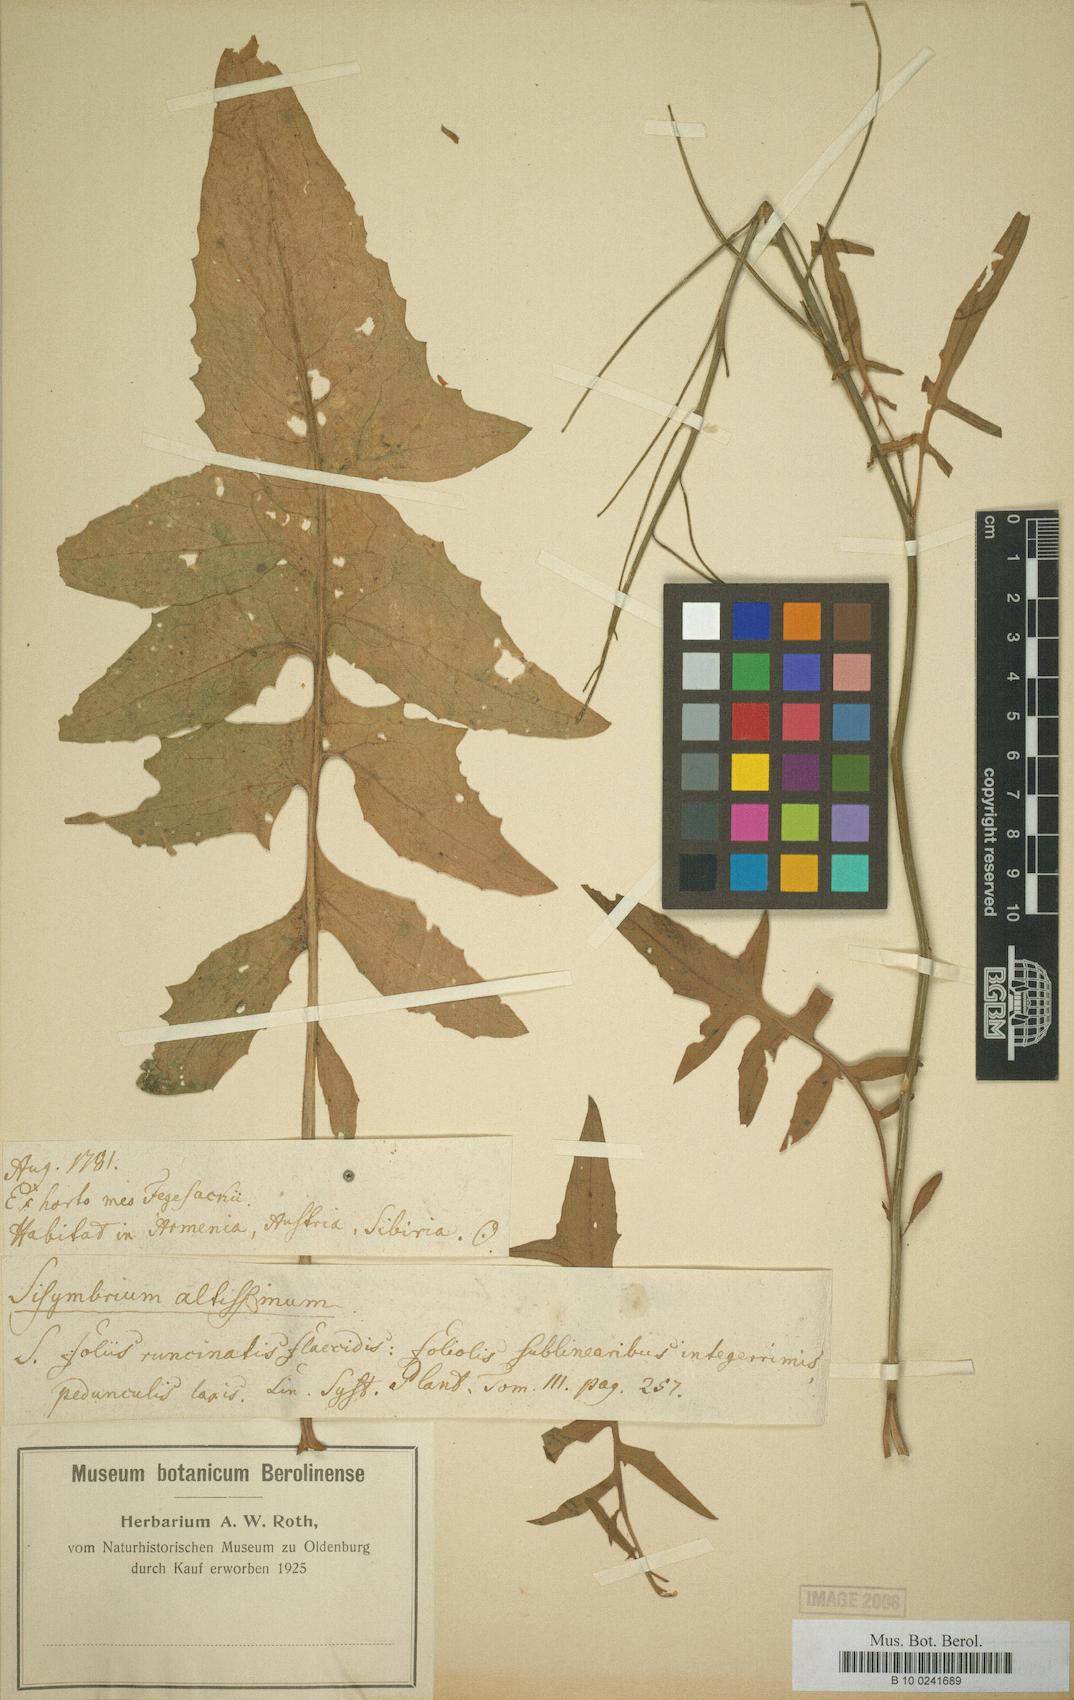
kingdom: Plantae
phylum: Tracheophyta
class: Magnoliopsida
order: Brassicales
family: Brassicaceae
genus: Sisymbrium
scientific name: Sisymbrium altissimum
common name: Tall rocket
